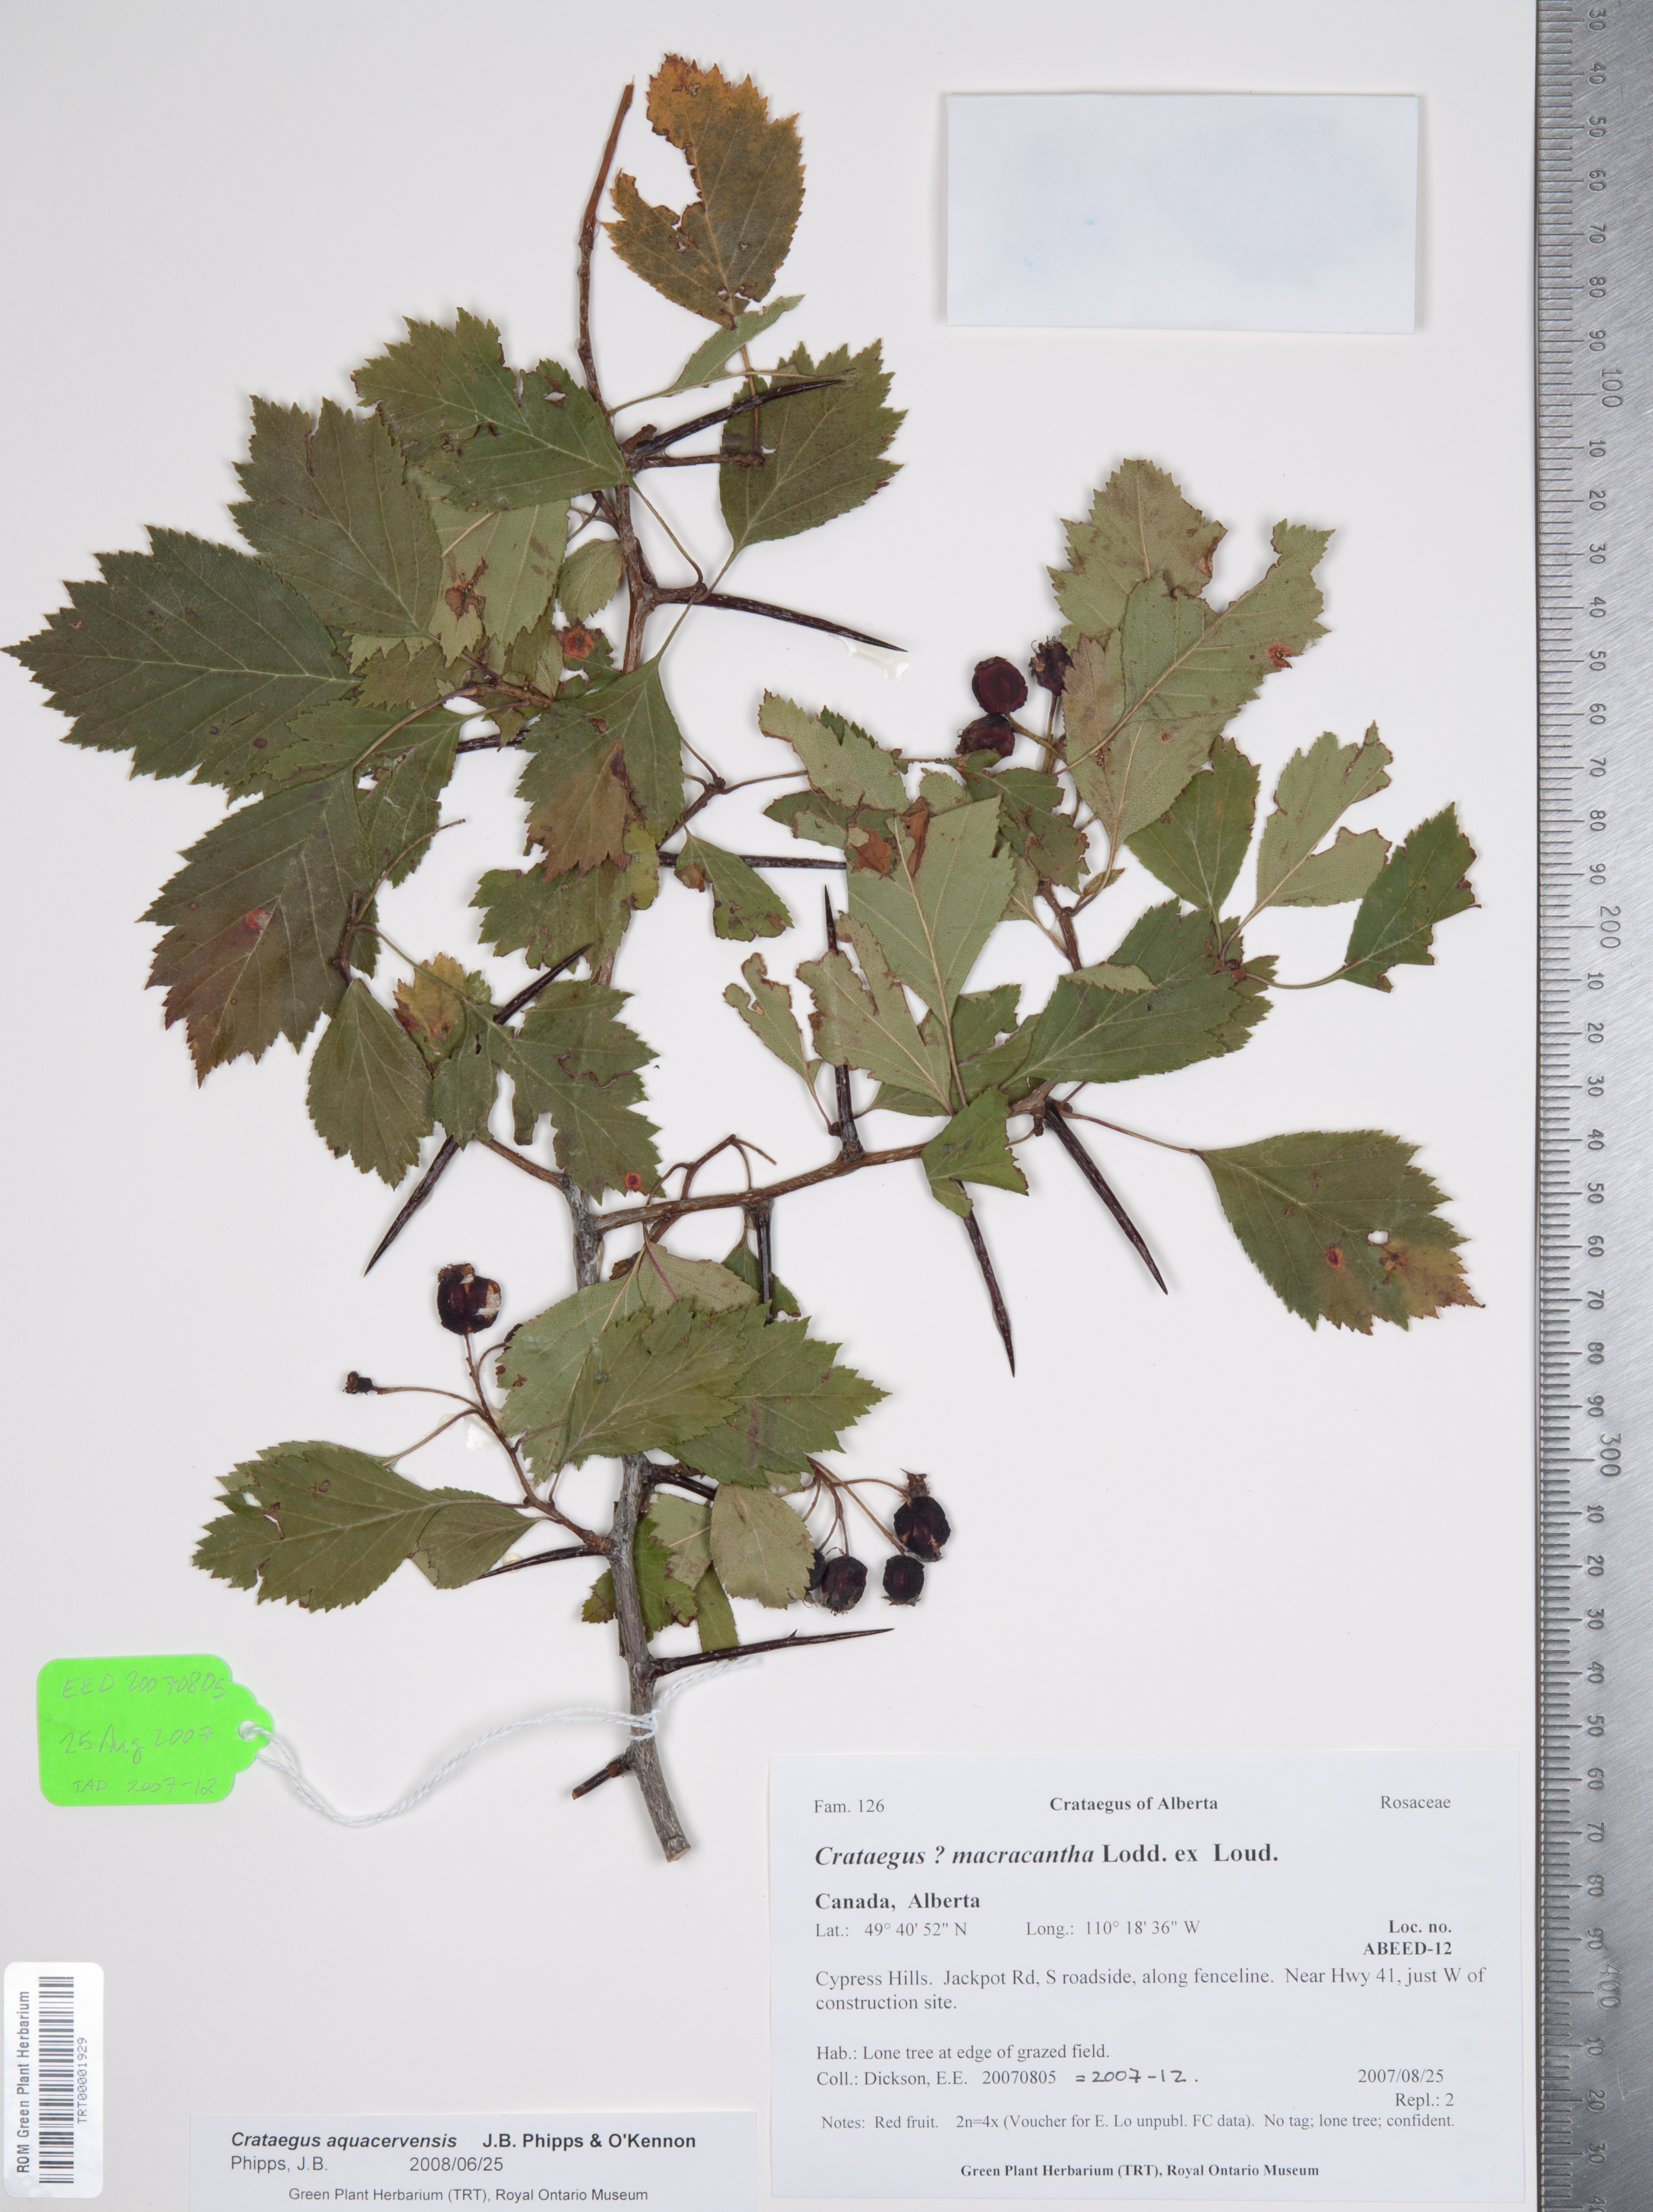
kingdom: Plantae
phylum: Tracheophyta
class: Magnoliopsida
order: Rosales
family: Rosaceae
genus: Crataegus
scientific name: Crataegus aquacervensis
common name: Elkwater hawthorn
